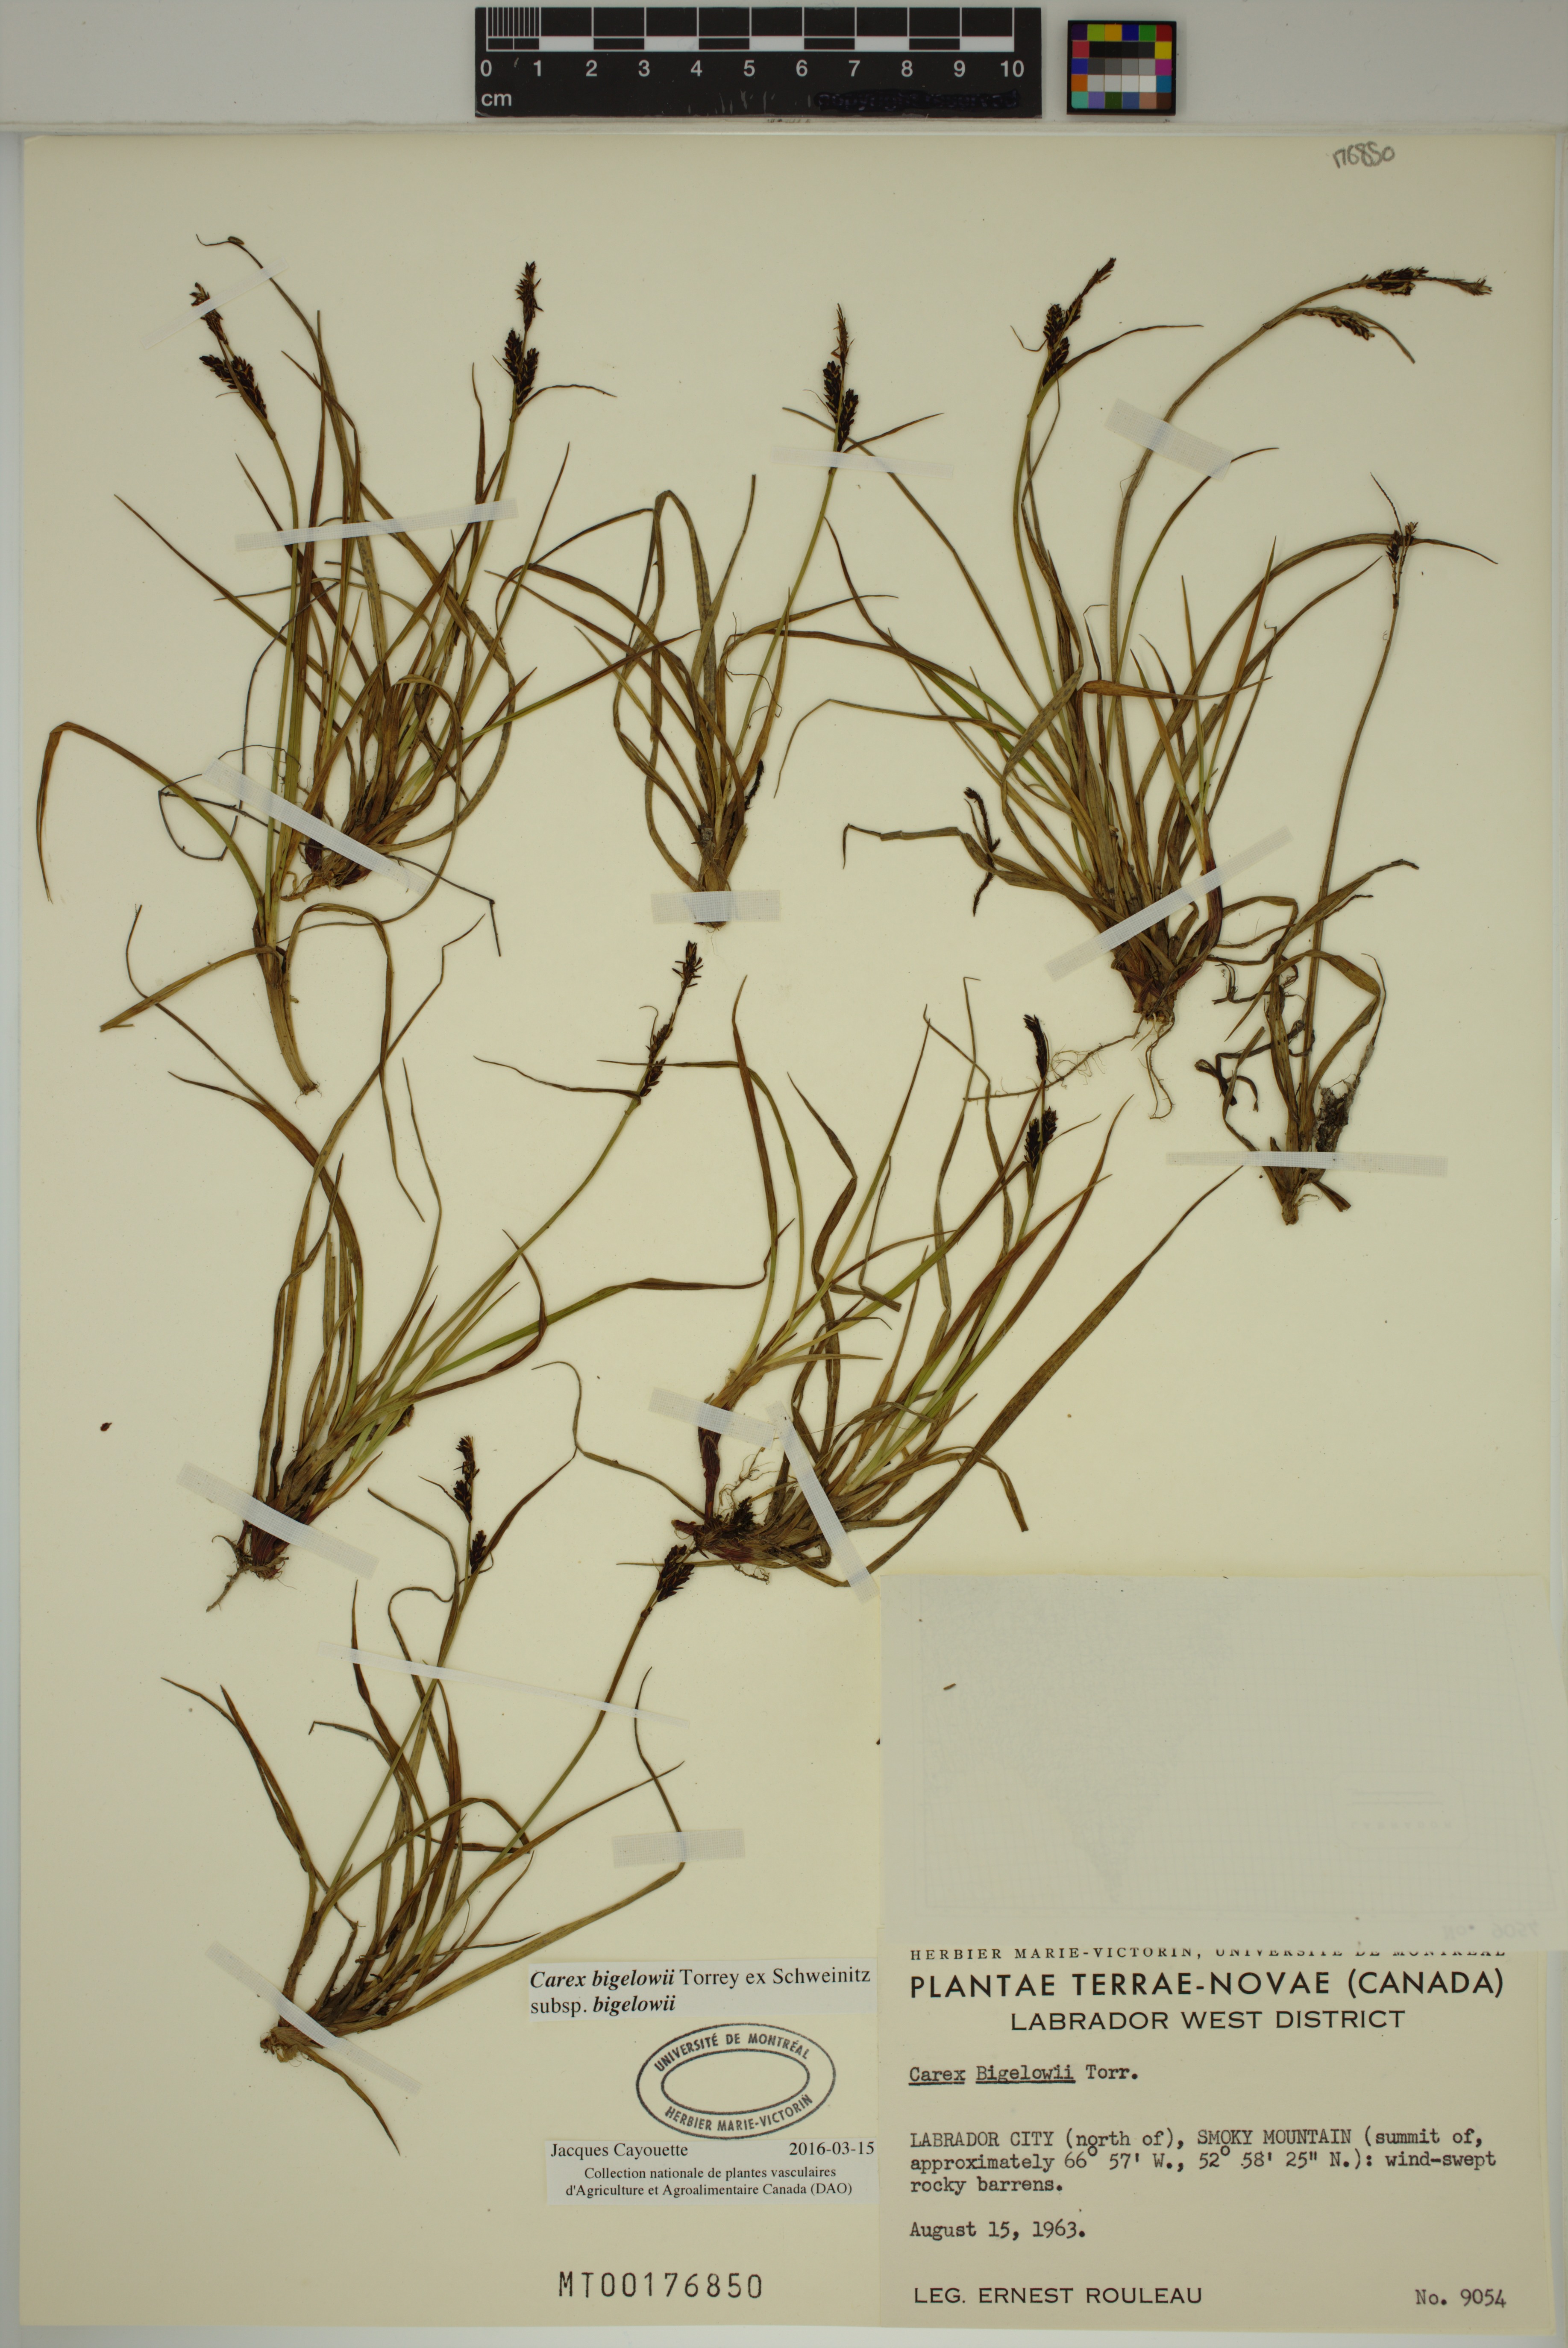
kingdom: Plantae
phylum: Tracheophyta
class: Liliopsida
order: Poales
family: Cyperaceae
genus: Carex
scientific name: Carex bigelowii
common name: Stiff sedge
